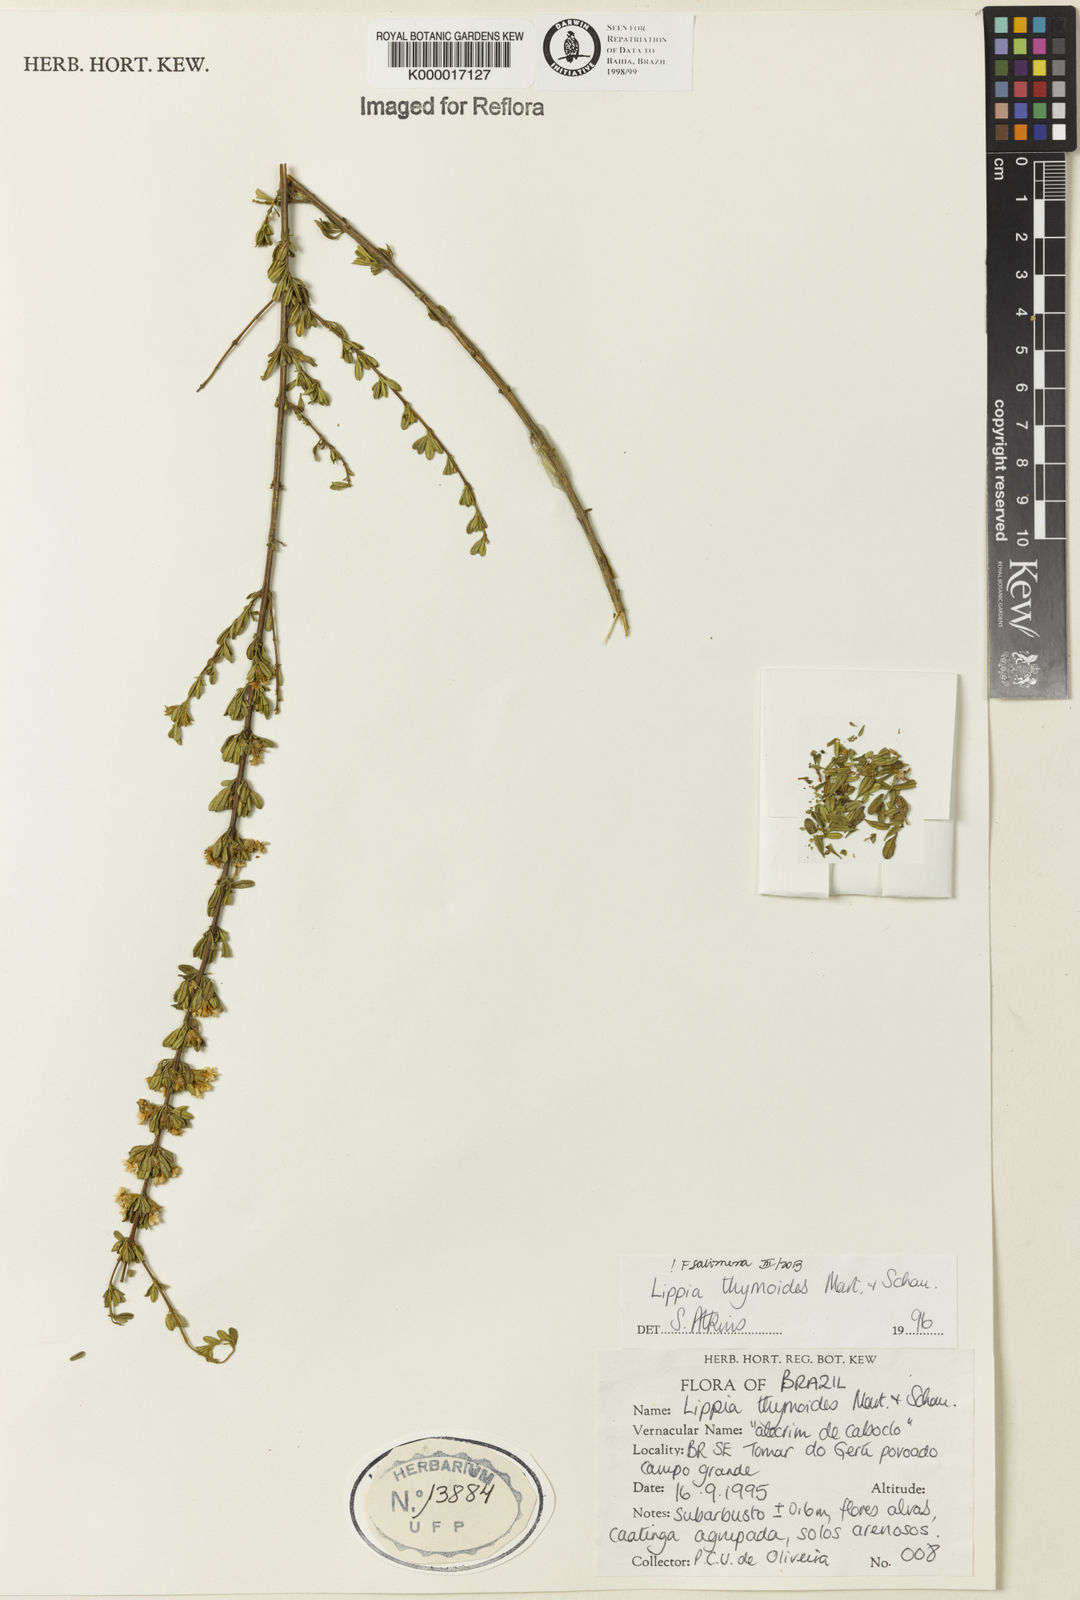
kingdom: Plantae
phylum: Tracheophyta
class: Magnoliopsida
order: Lamiales
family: Verbenaceae
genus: Lippia
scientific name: Lippia thymoides
